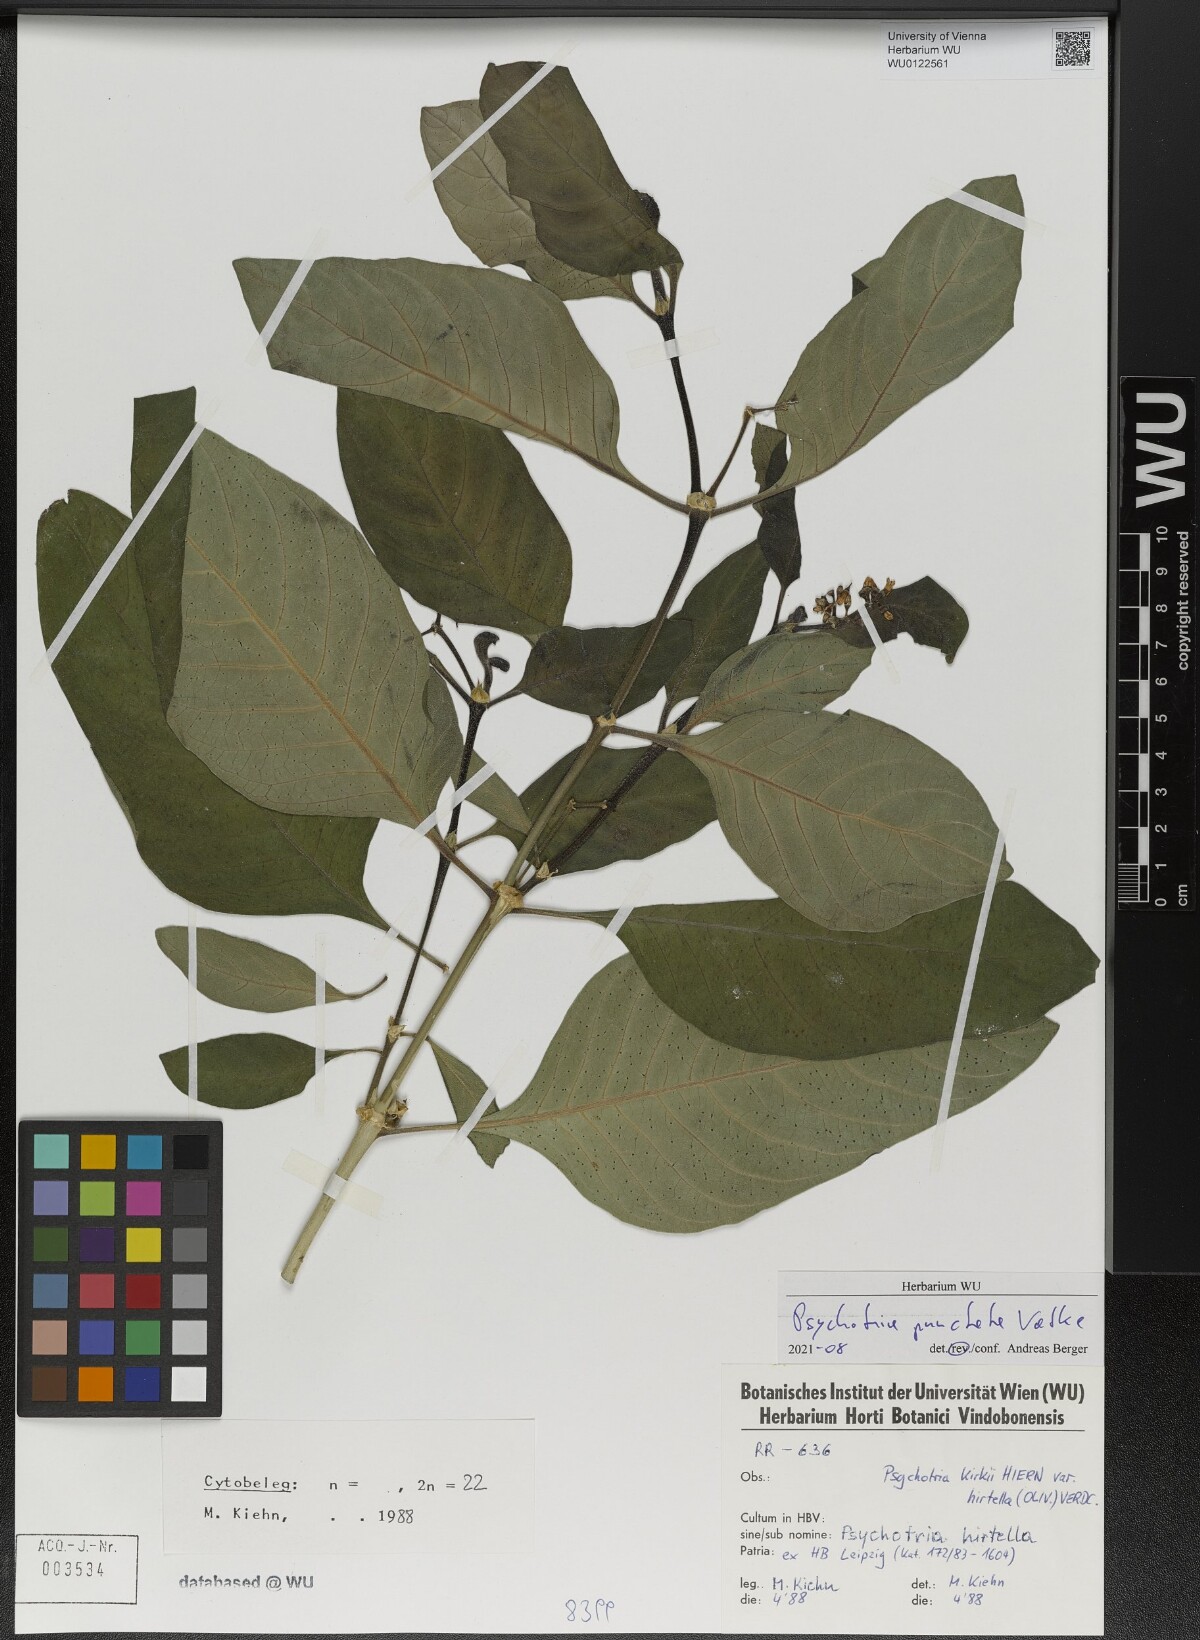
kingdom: Plantae
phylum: Tracheophyta
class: Magnoliopsida
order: Gentianales
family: Rubiaceae
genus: Psychotria
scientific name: Psychotria punctata
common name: Dotted wild coffee
